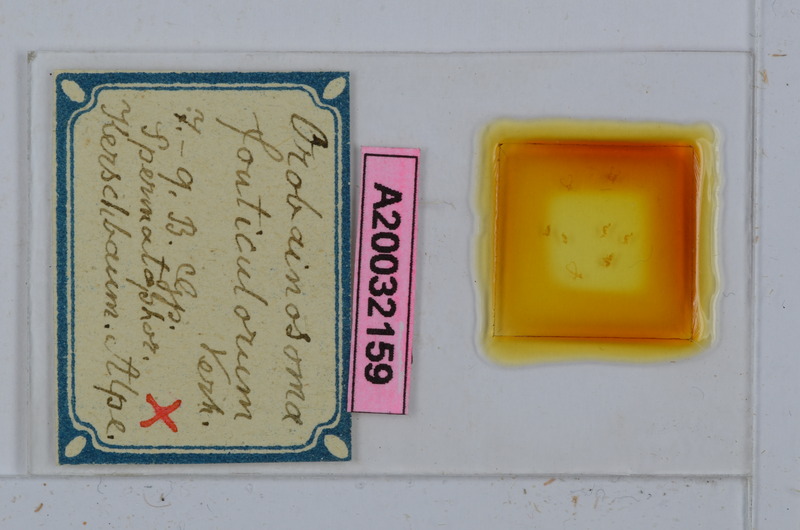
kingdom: Animalia
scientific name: Animalia
